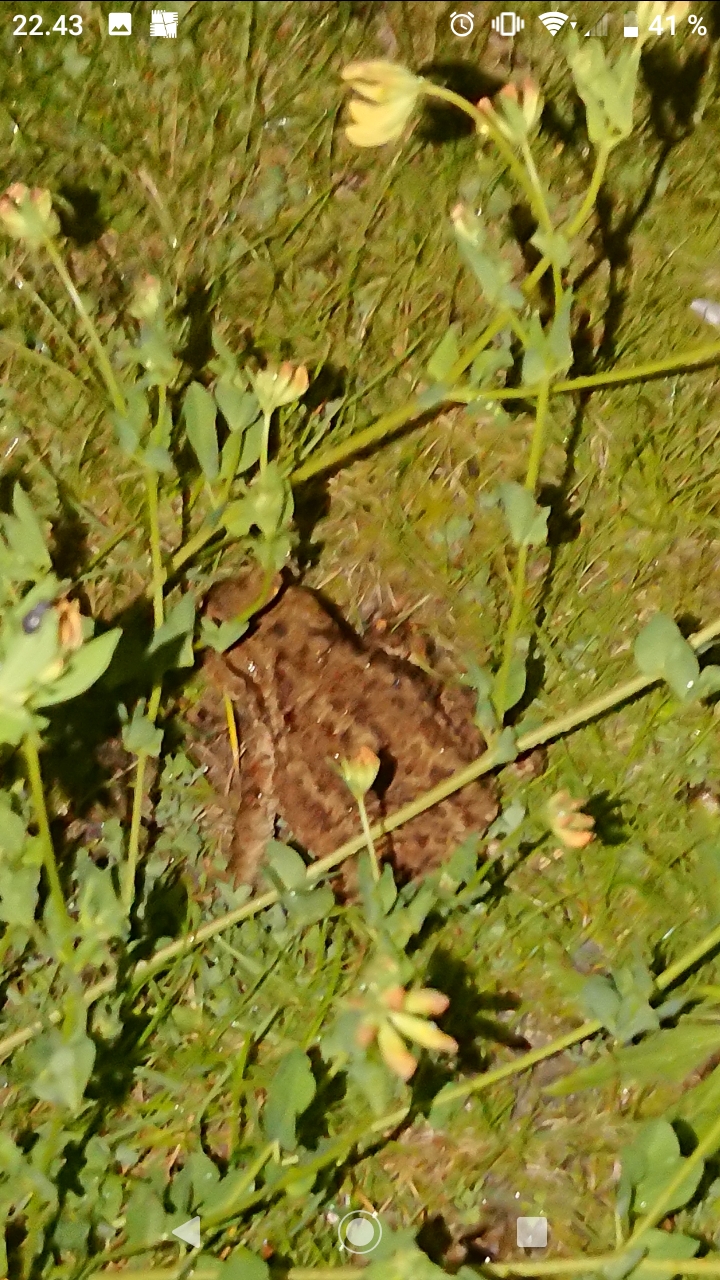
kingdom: Animalia
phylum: Chordata
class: Amphibia
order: Anura
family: Bufonidae
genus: Bufo
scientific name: Bufo bufo
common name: Skrubtudse
